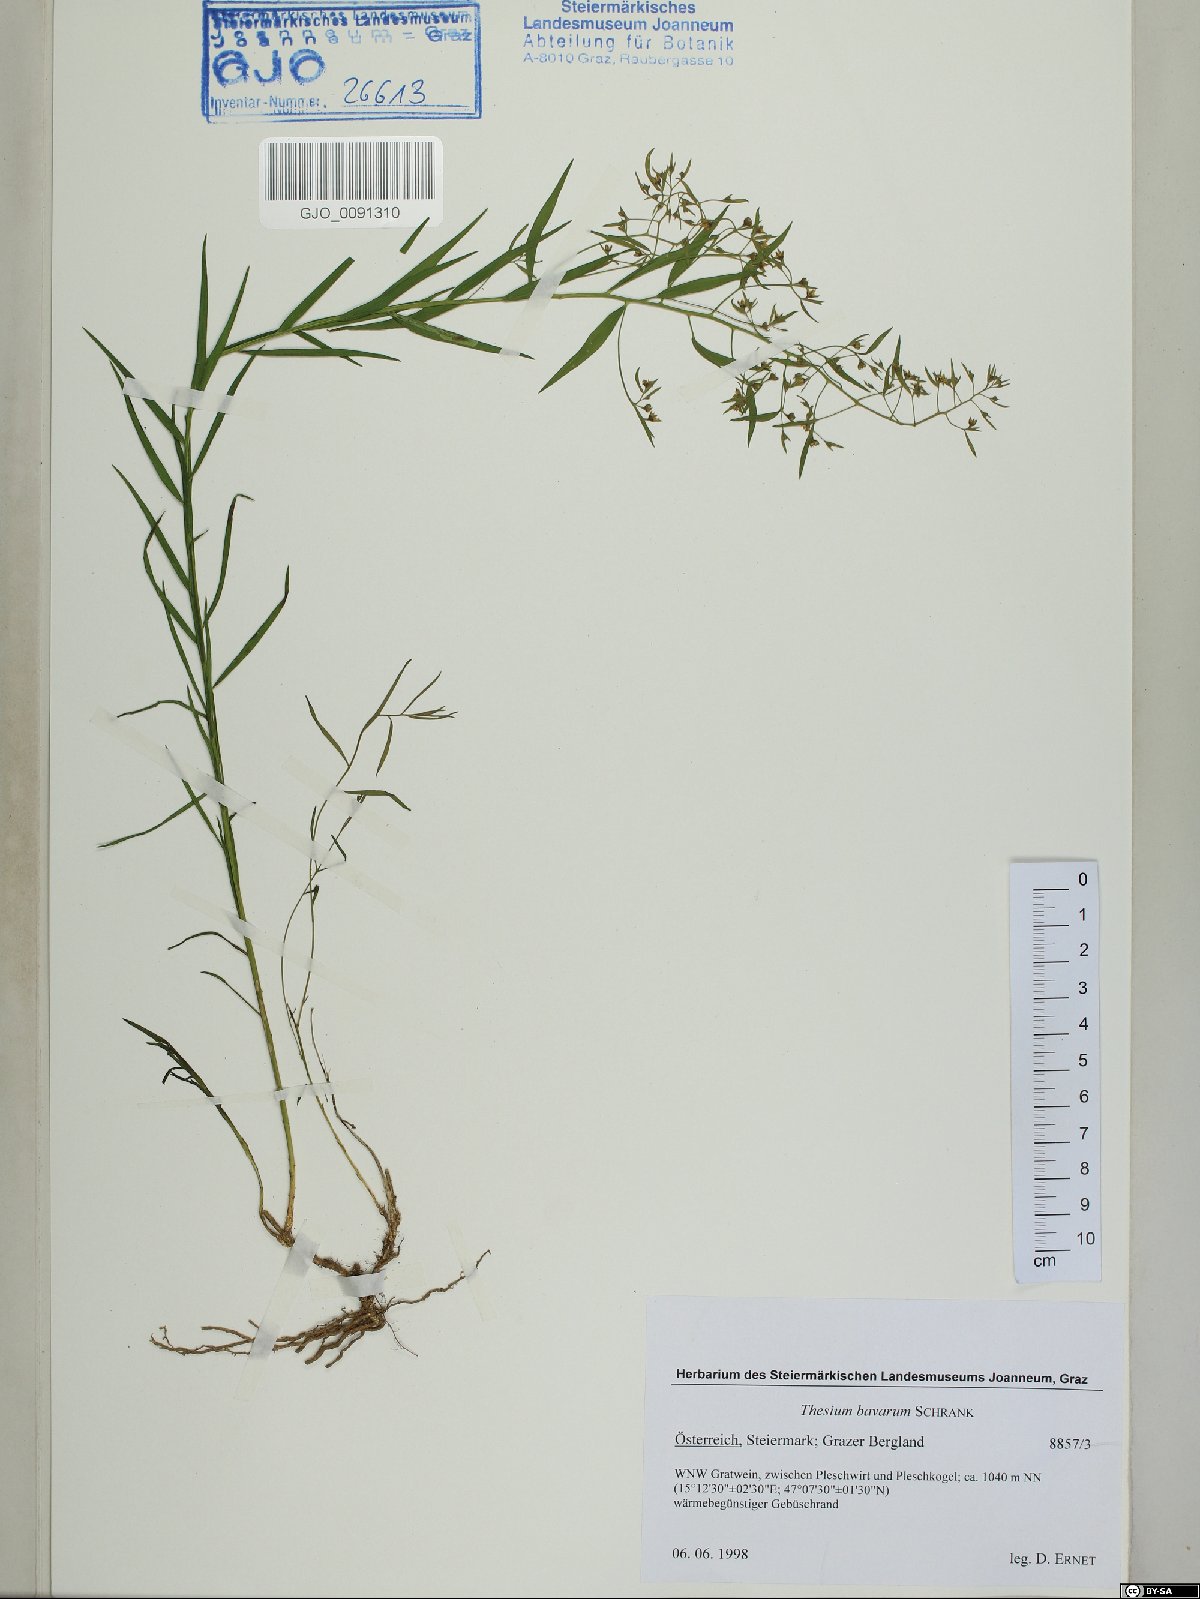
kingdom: Plantae
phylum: Tracheophyta
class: Magnoliopsida
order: Santalales
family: Thesiaceae
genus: Thesium
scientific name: Thesium bavarum
